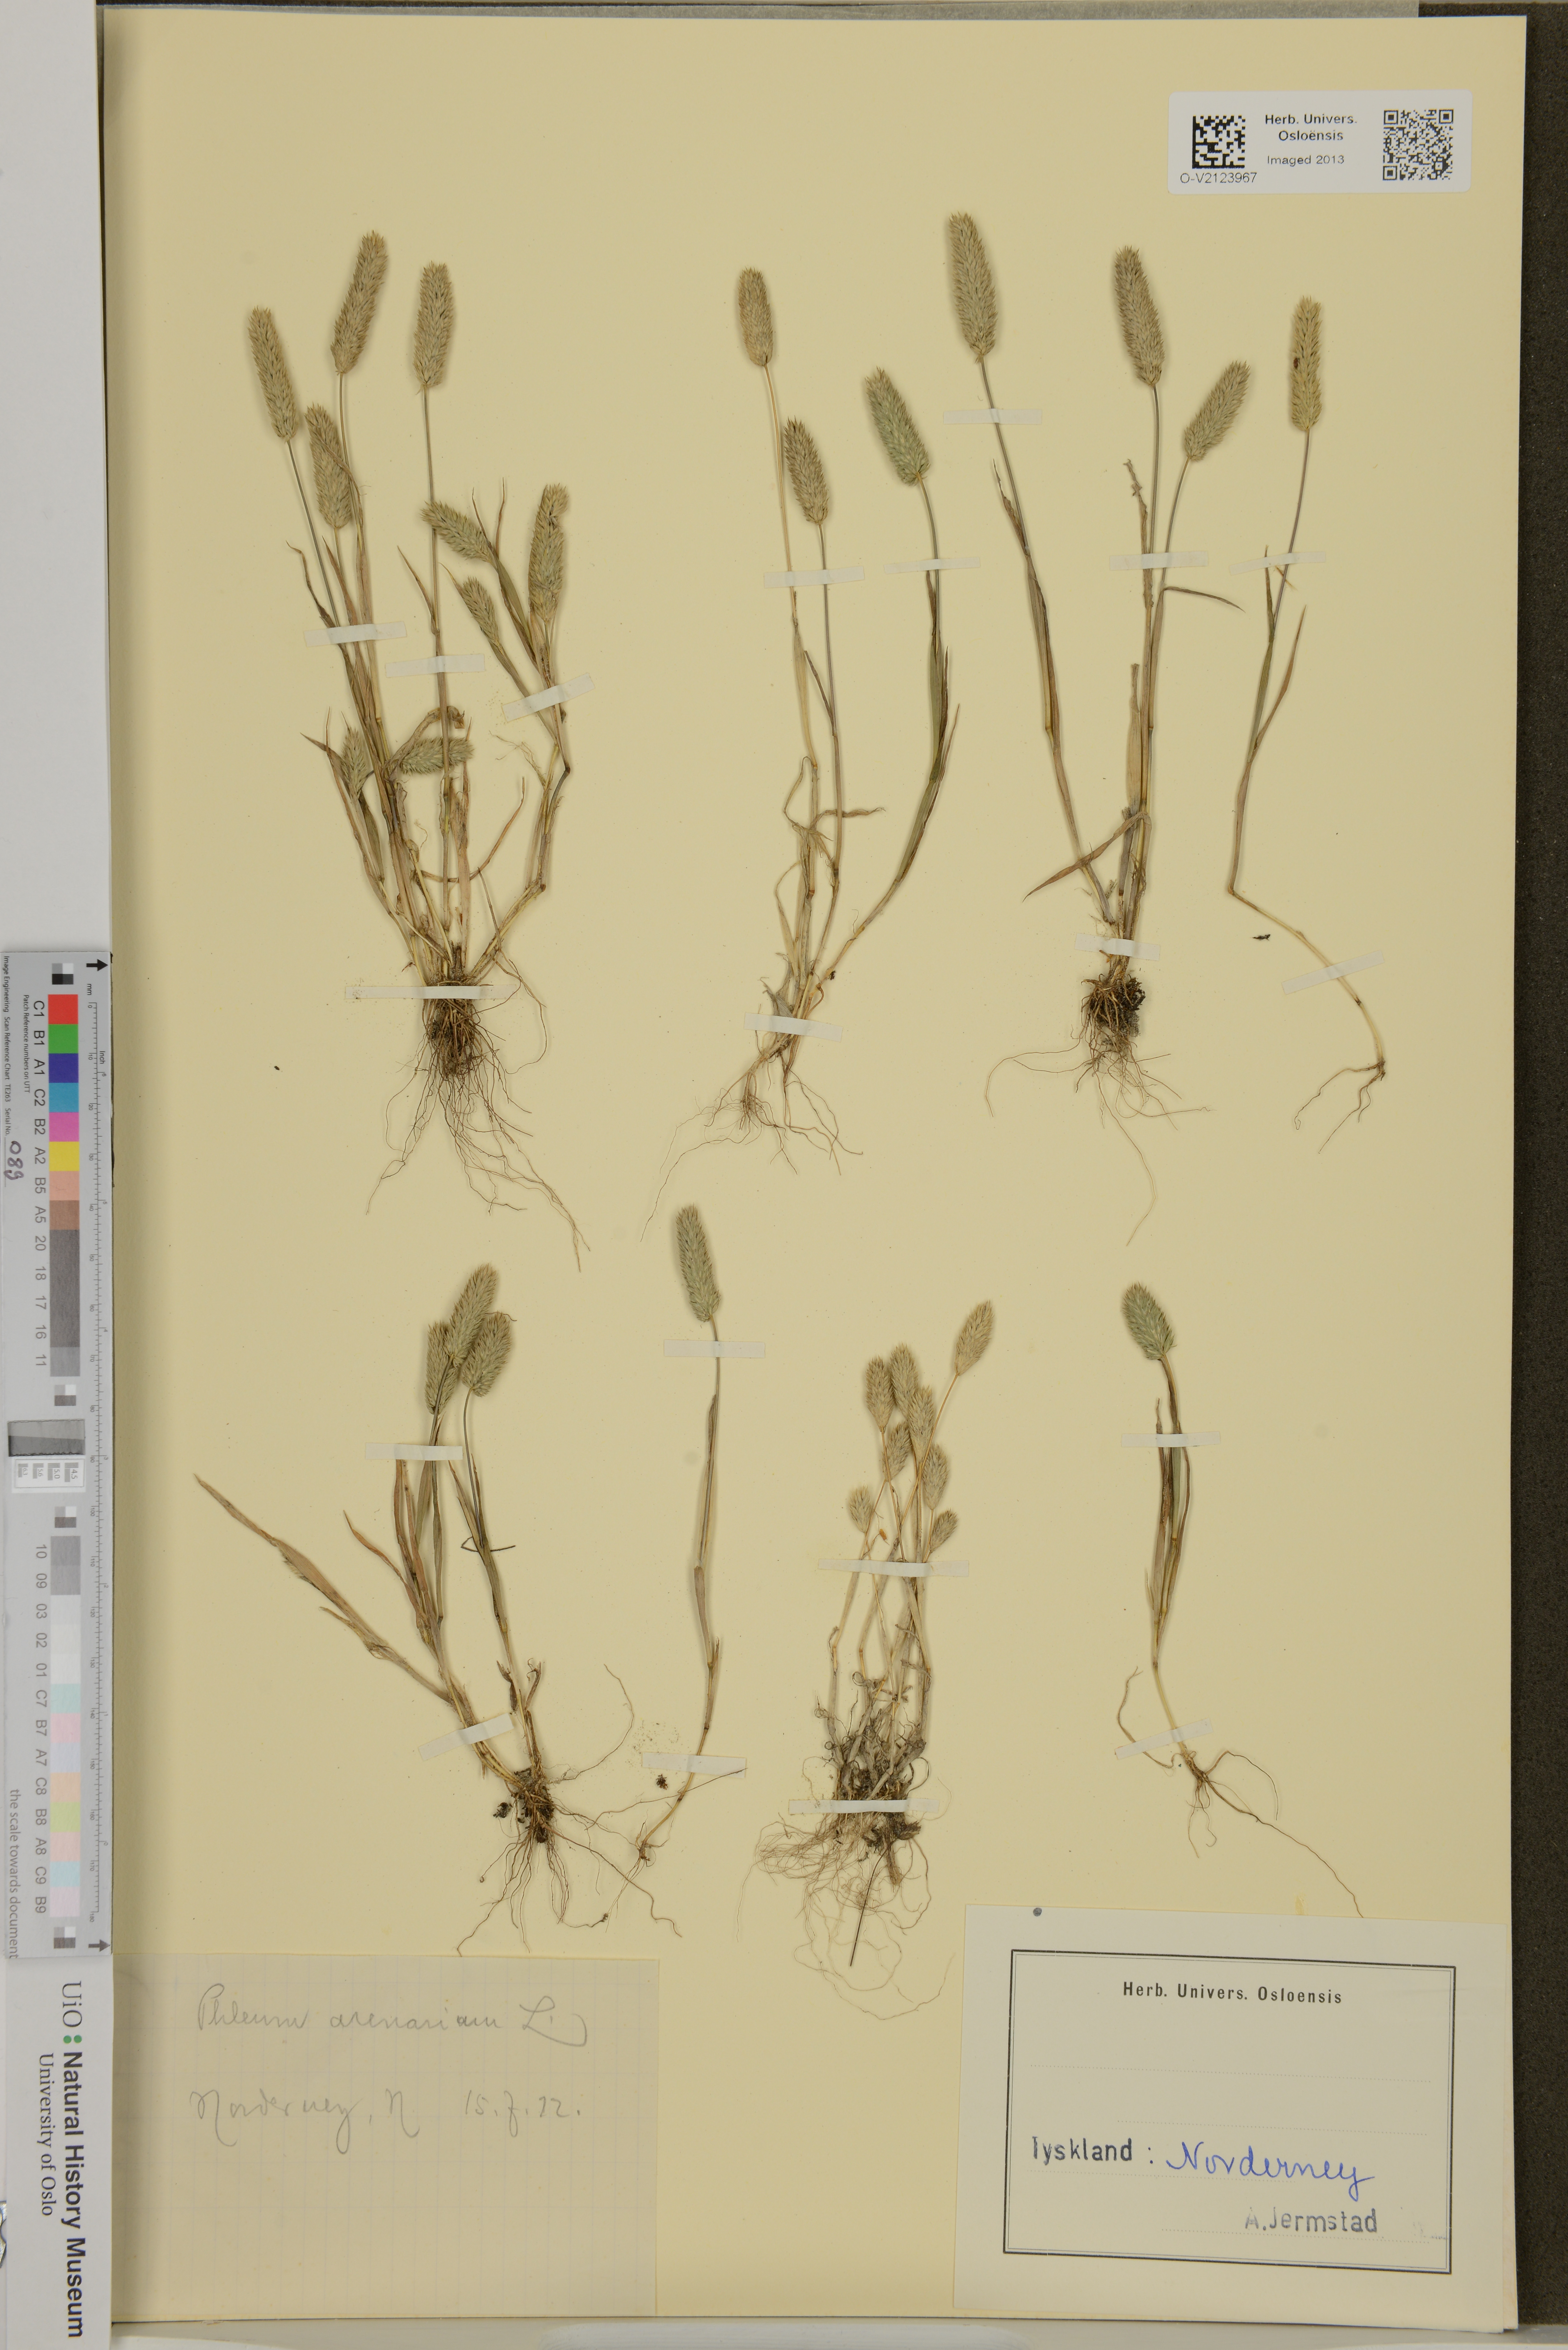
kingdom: Plantae
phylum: Tracheophyta
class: Liliopsida
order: Poales
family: Poaceae
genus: Phleum
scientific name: Phleum arenarium
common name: Sand cat's-tail
